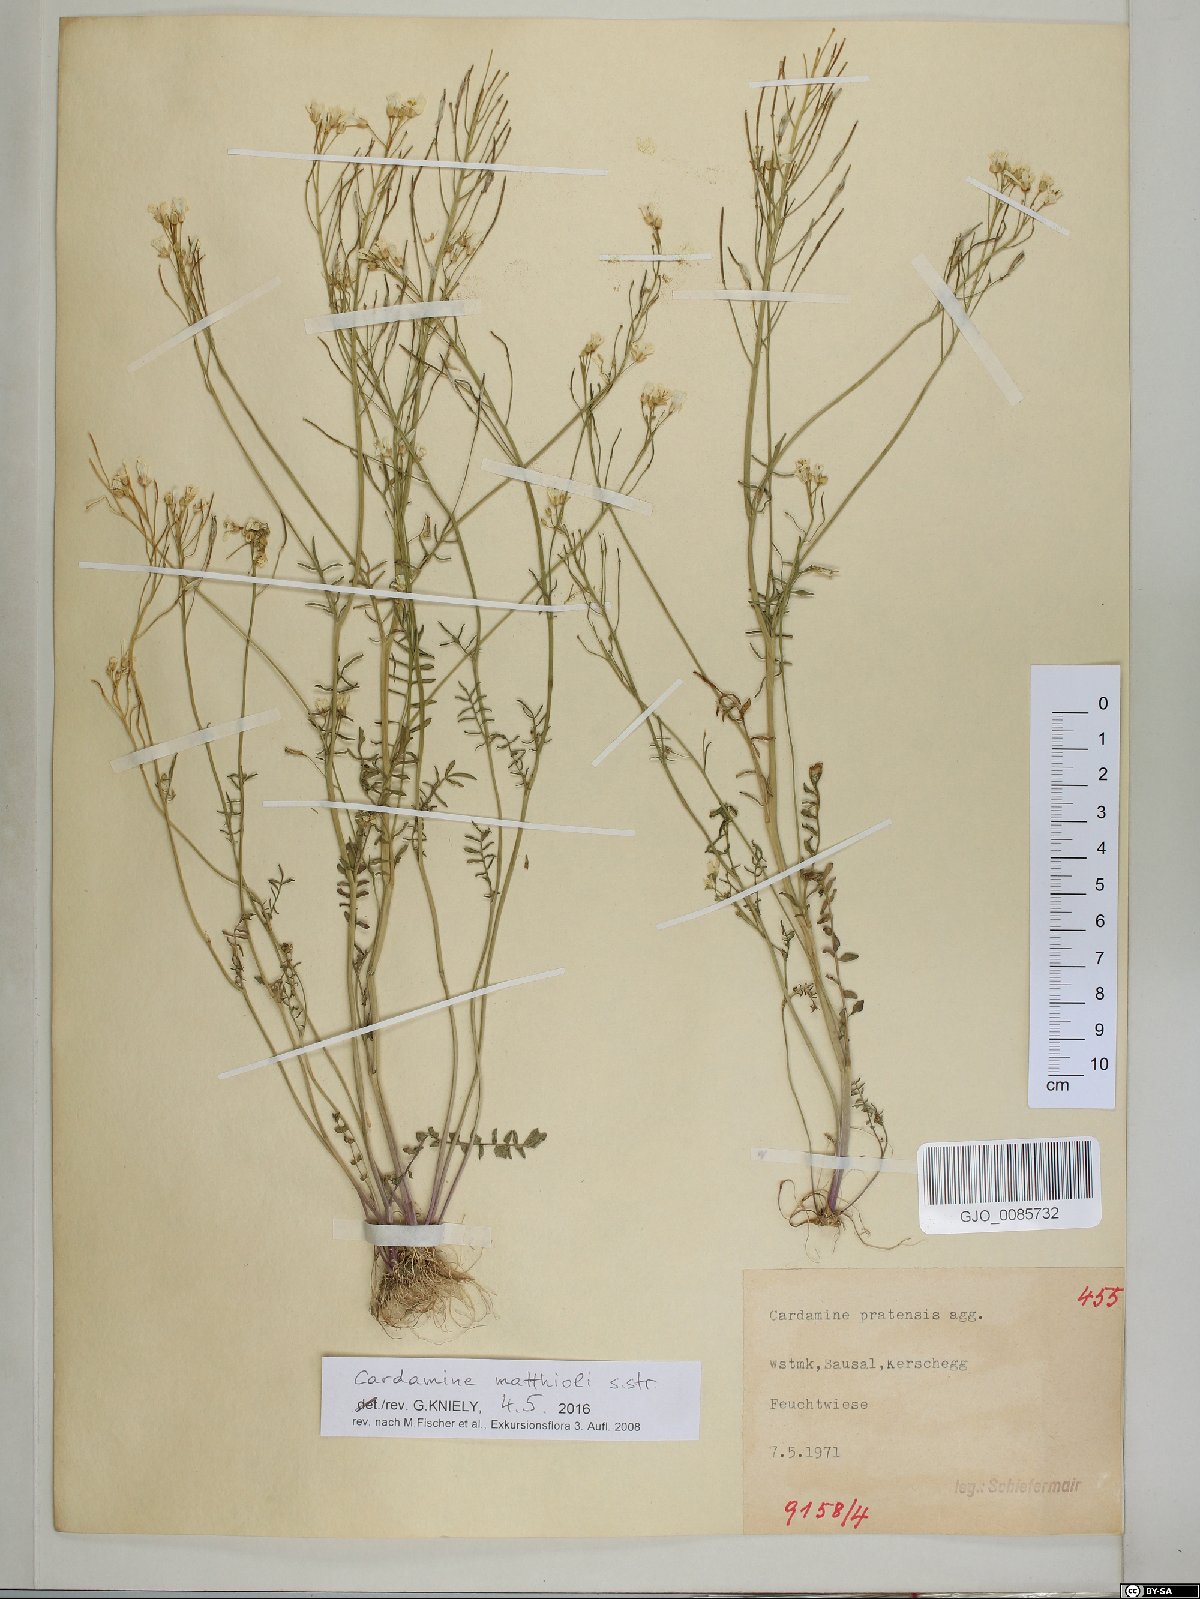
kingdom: Plantae
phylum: Tracheophyta
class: Magnoliopsida
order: Brassicales
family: Brassicaceae
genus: Cardamine
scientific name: Cardamine matthioli
